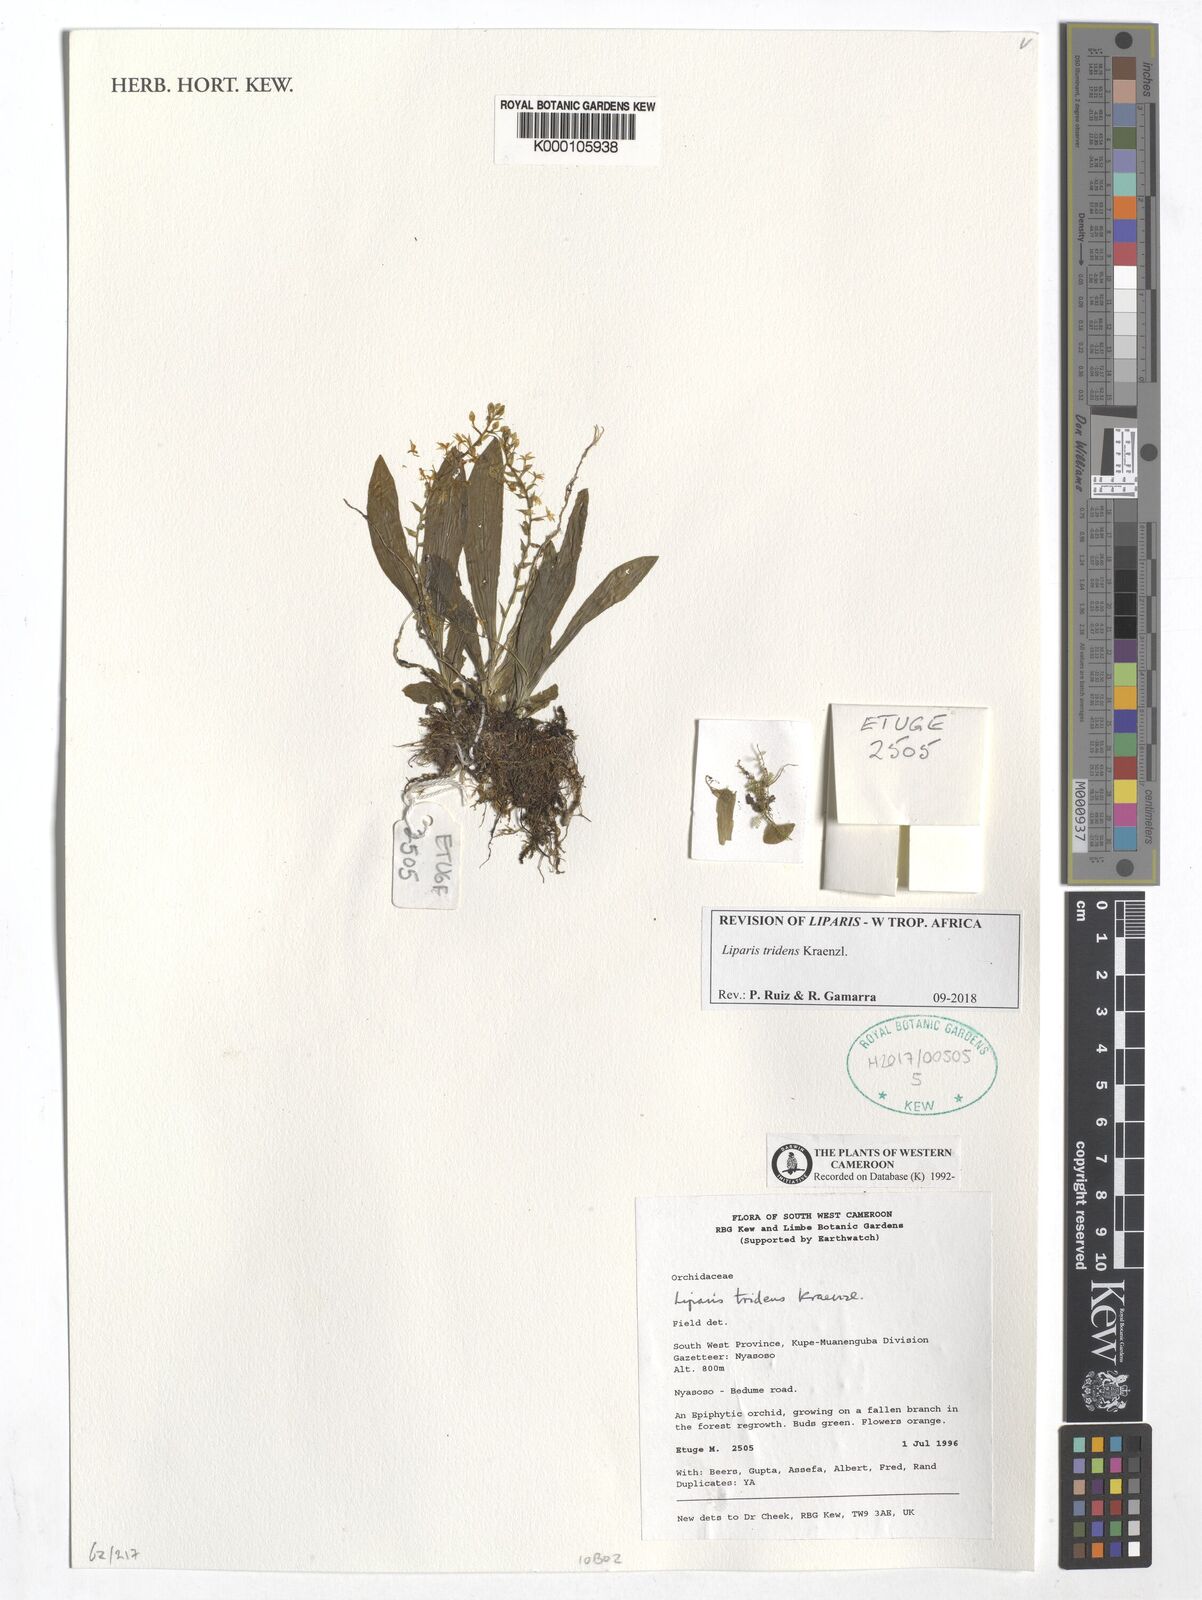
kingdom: Plantae
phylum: Tracheophyta
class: Liliopsida
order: Asparagales
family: Orchidaceae
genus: Liparis
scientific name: Liparis tridens
